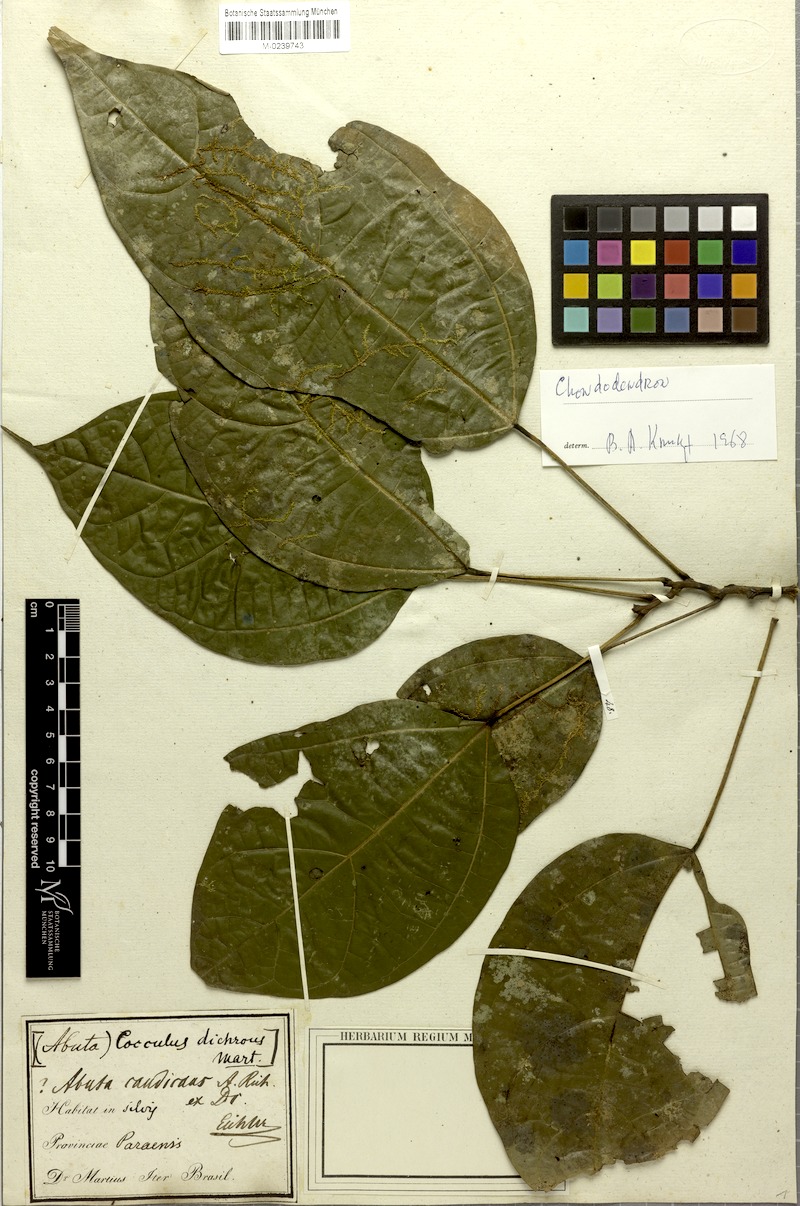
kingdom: Plantae
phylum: Tracheophyta
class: Magnoliopsida
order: Ranunculales
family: Menispermaceae
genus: Curarea
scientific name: Curarea candicans
